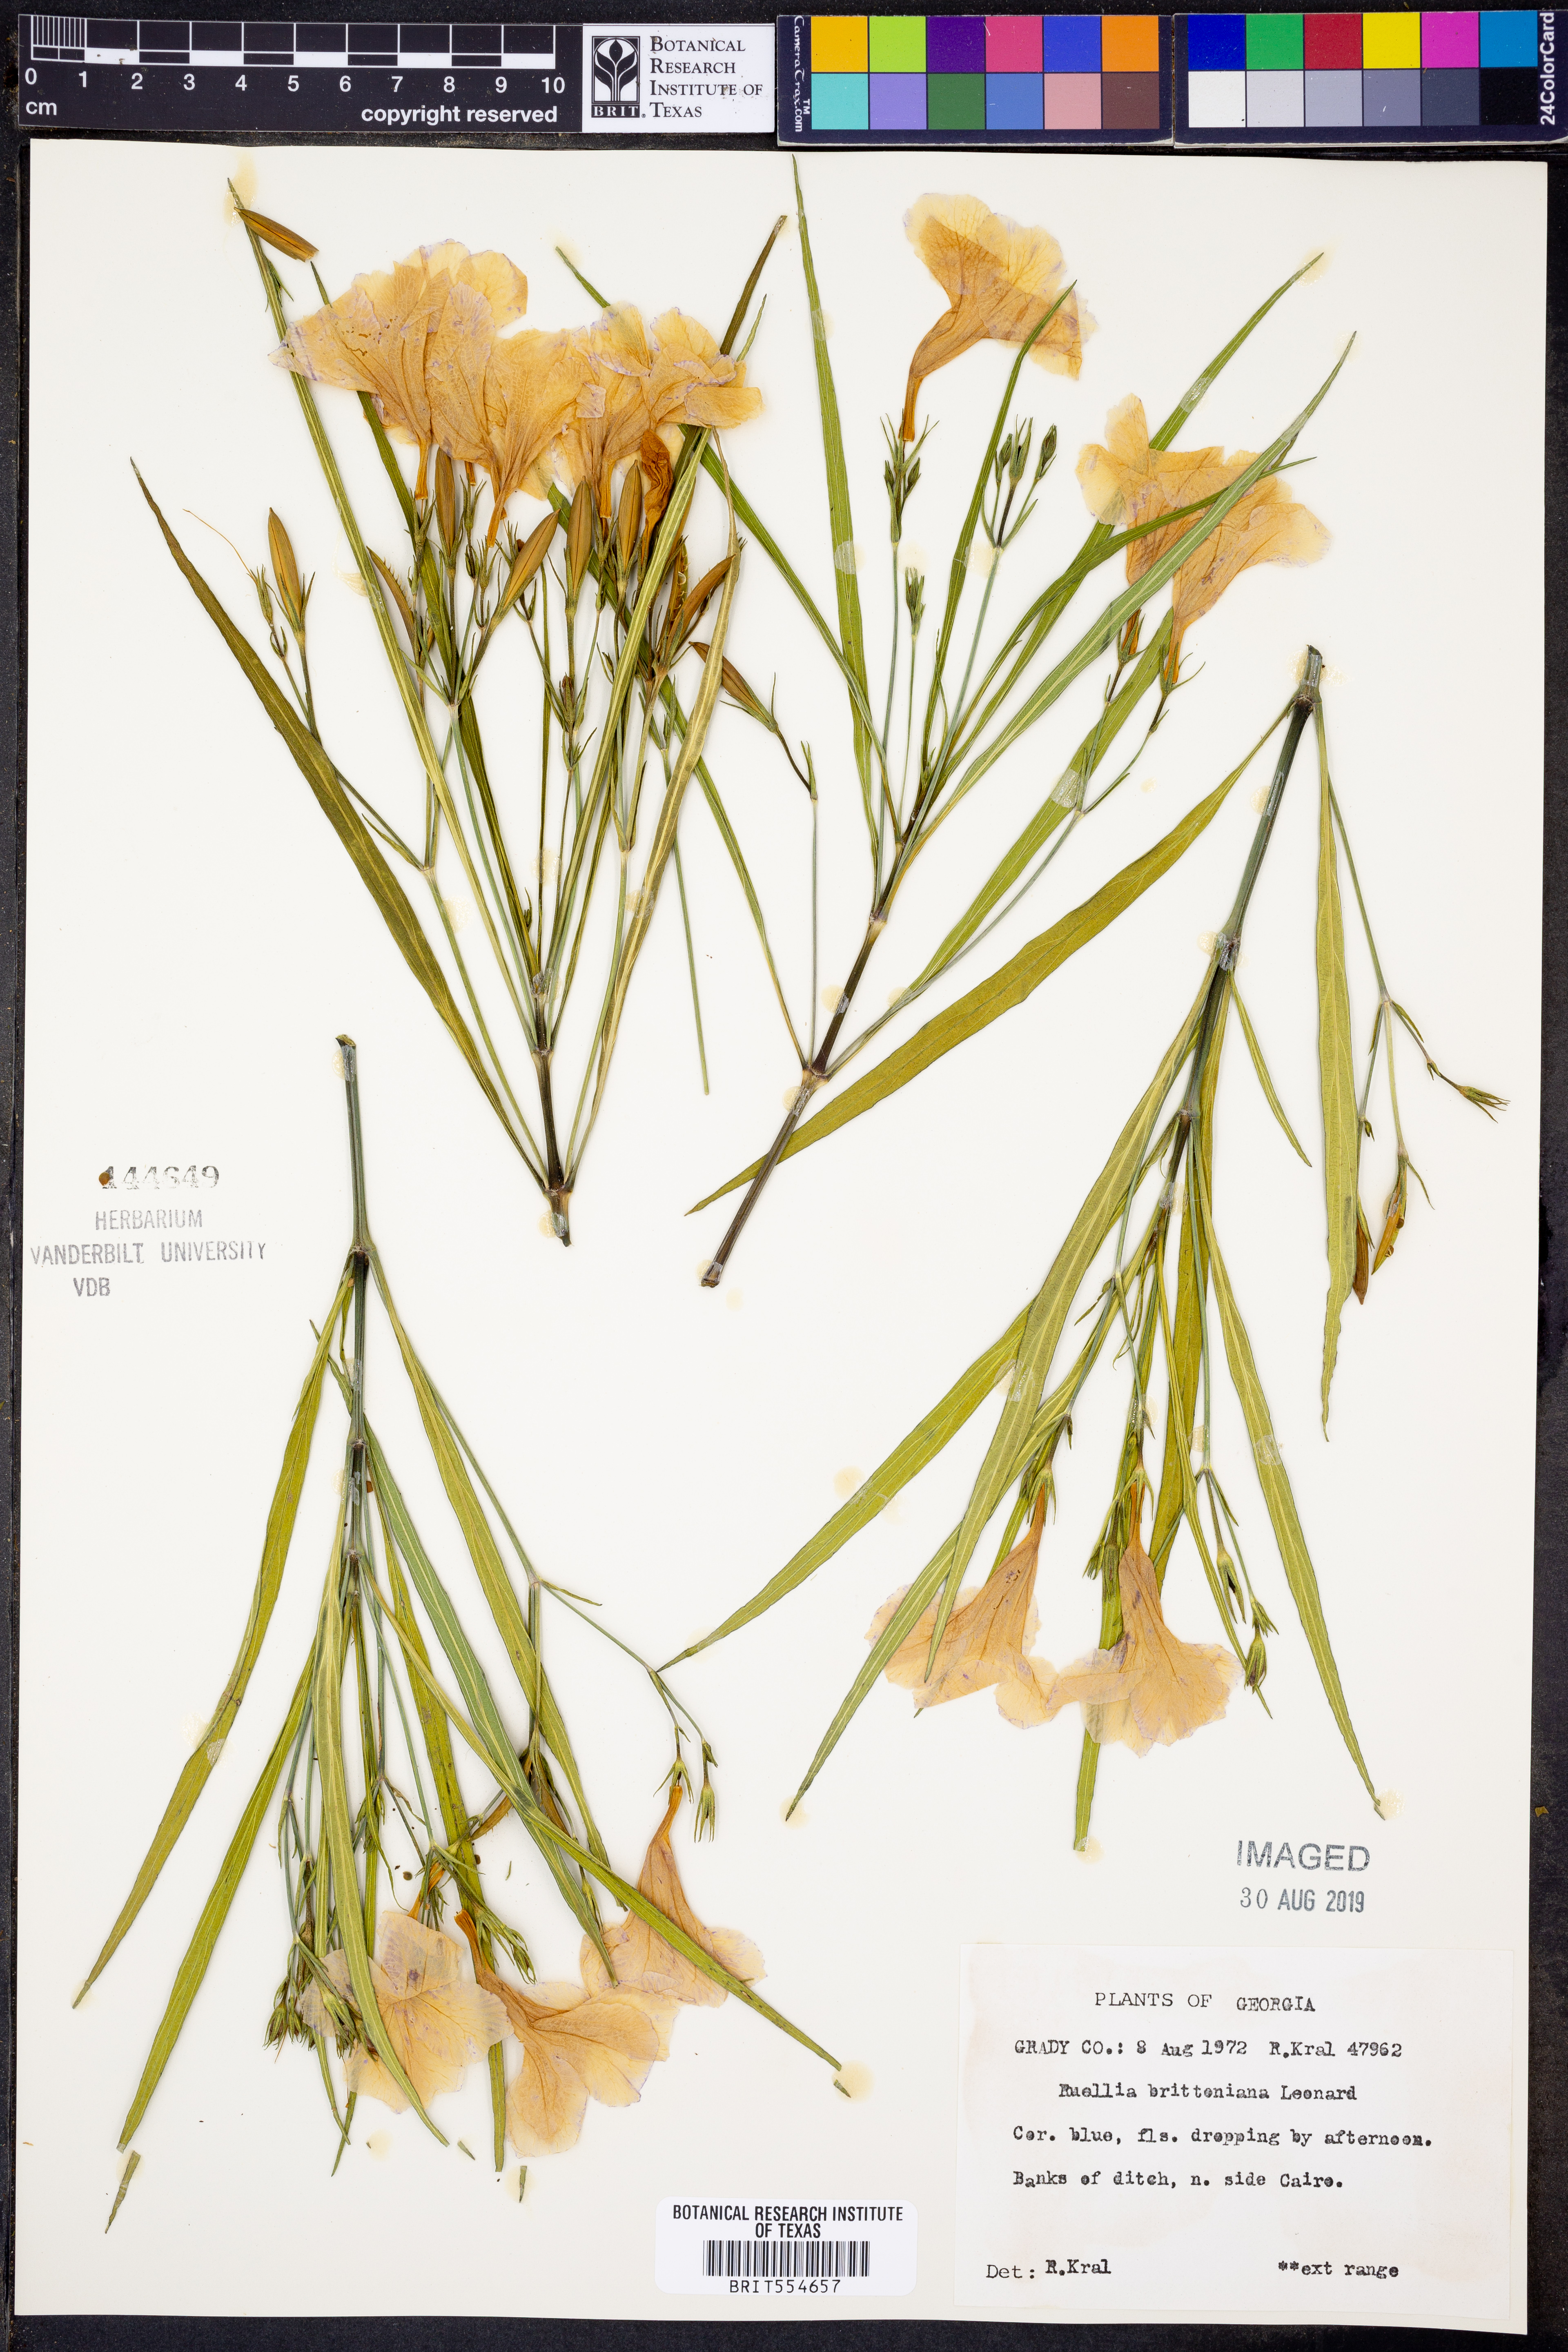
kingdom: Plantae
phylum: Tracheophyta
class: Magnoliopsida
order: Lamiales
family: Acanthaceae
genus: Ruellia
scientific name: Ruellia simplex
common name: Softseed wild petunia
